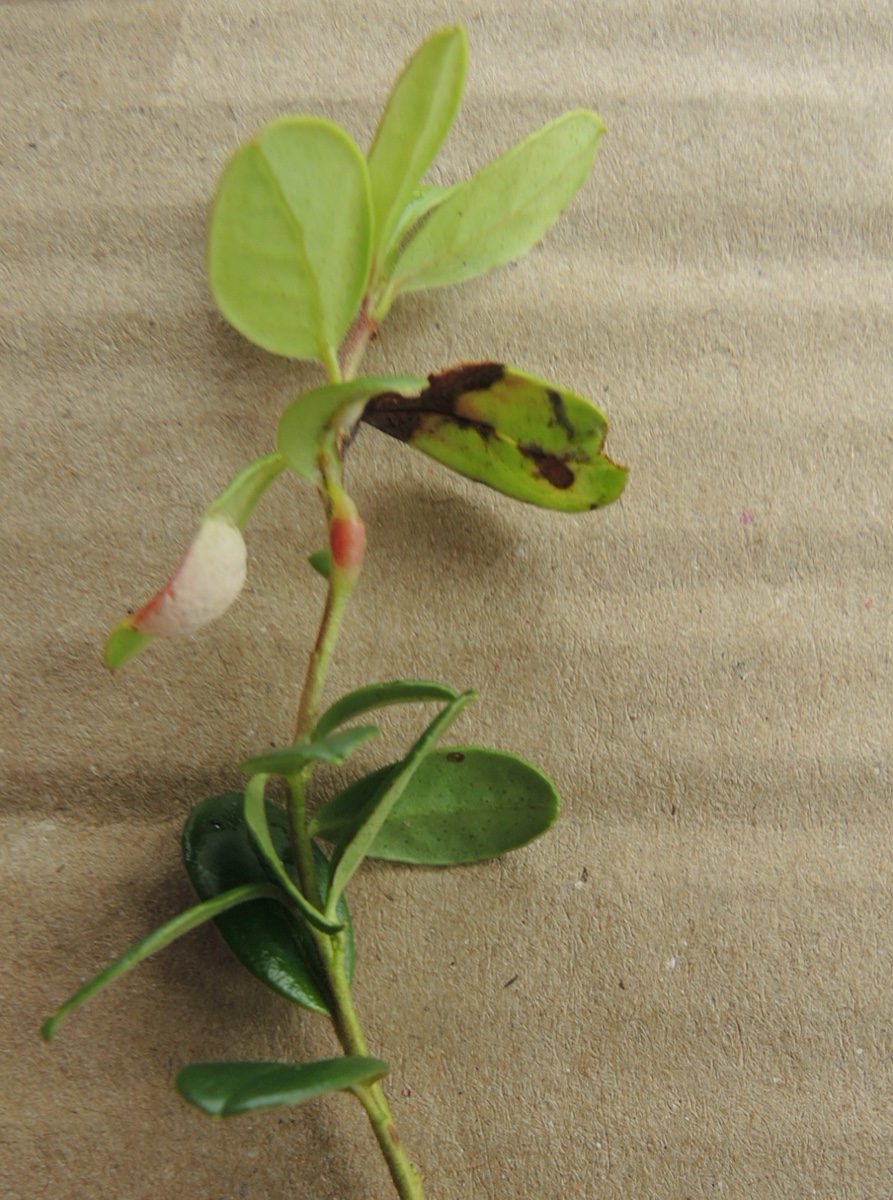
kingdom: Fungi
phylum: Basidiomycota
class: Exobasidiomycetes
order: Exobasidiales
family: Exobasidiaceae
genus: Exobasidium
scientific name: Exobasidium vaccinii
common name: tyttebærblad-bøllesvamp
